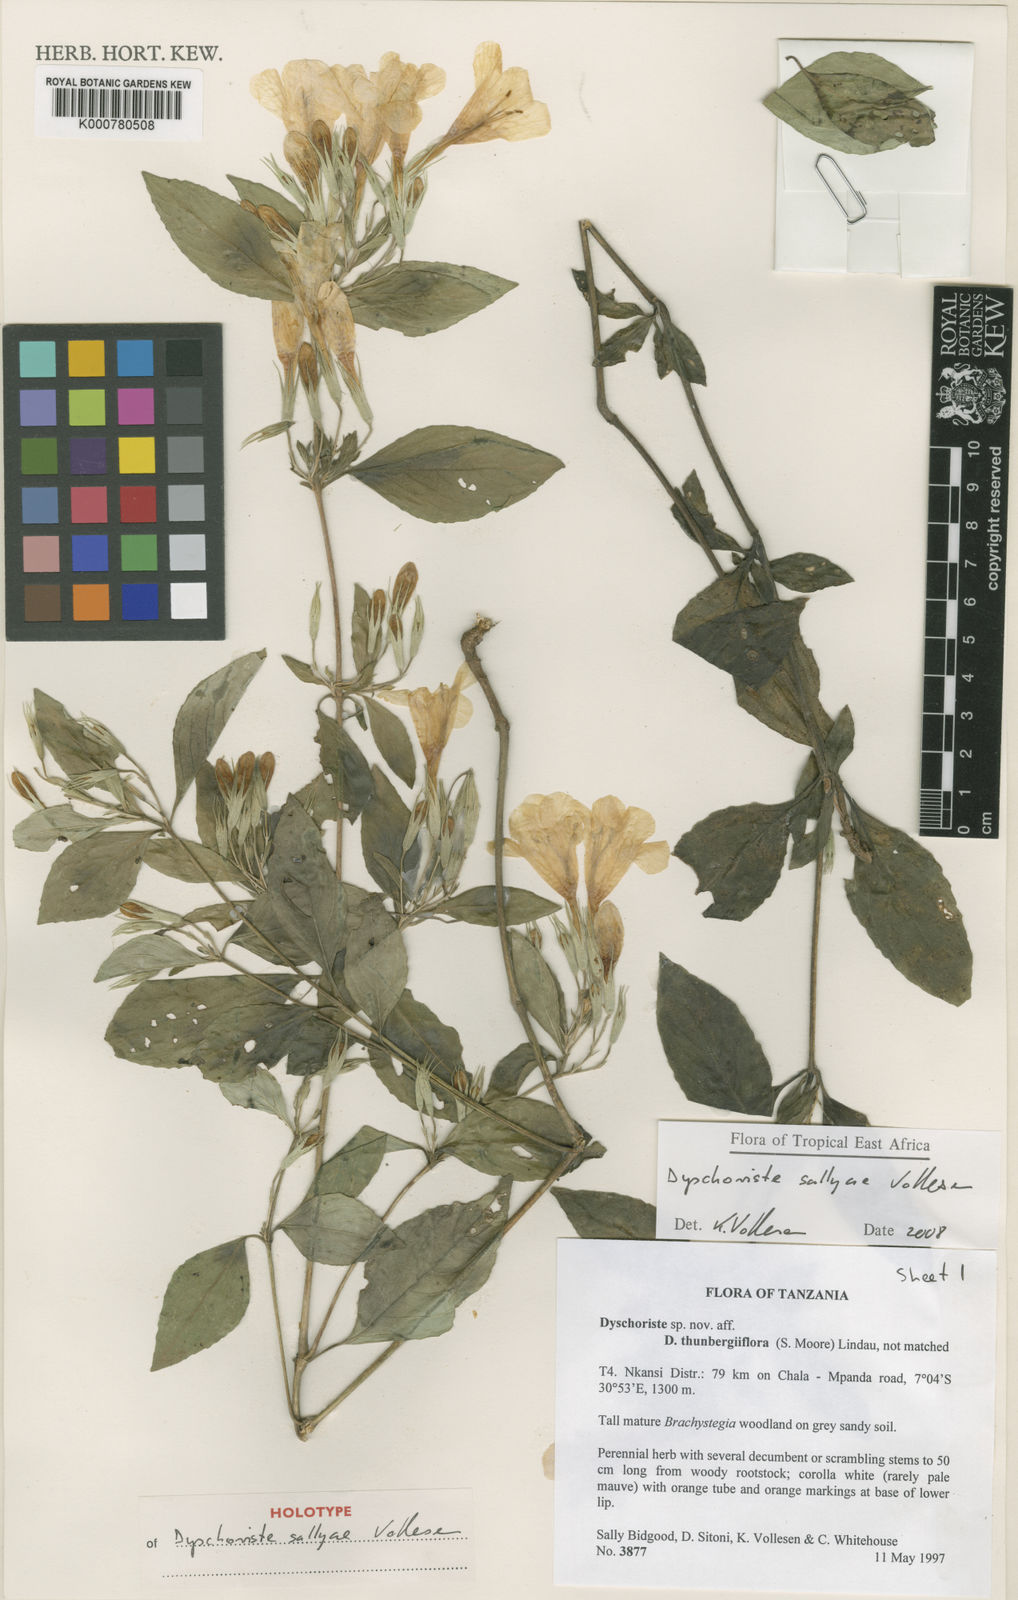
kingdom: Plantae
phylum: Tracheophyta
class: Magnoliopsida
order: Lamiales
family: Acanthaceae
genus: Dyschoriste
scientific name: Dyschoriste sallyae
